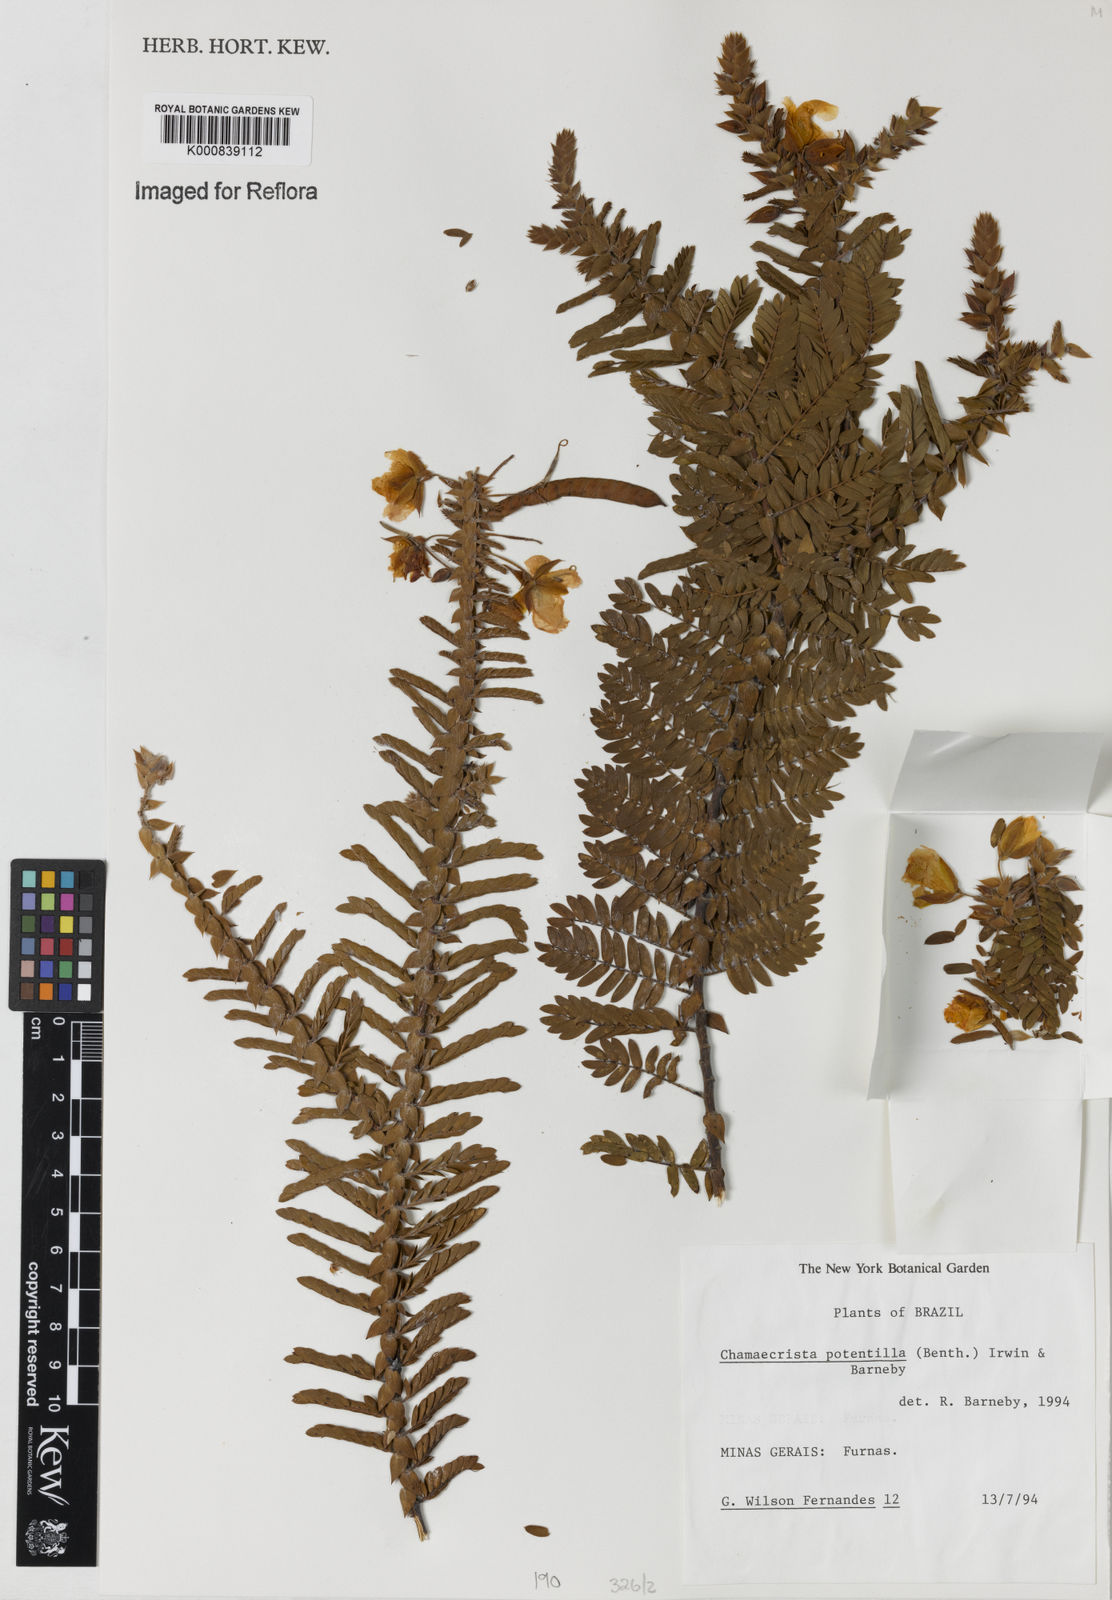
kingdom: Plantae
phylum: Tracheophyta
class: Magnoliopsida
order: Fabales
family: Fabaceae
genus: Chamaecrista
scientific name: Chamaecrista potentilla
